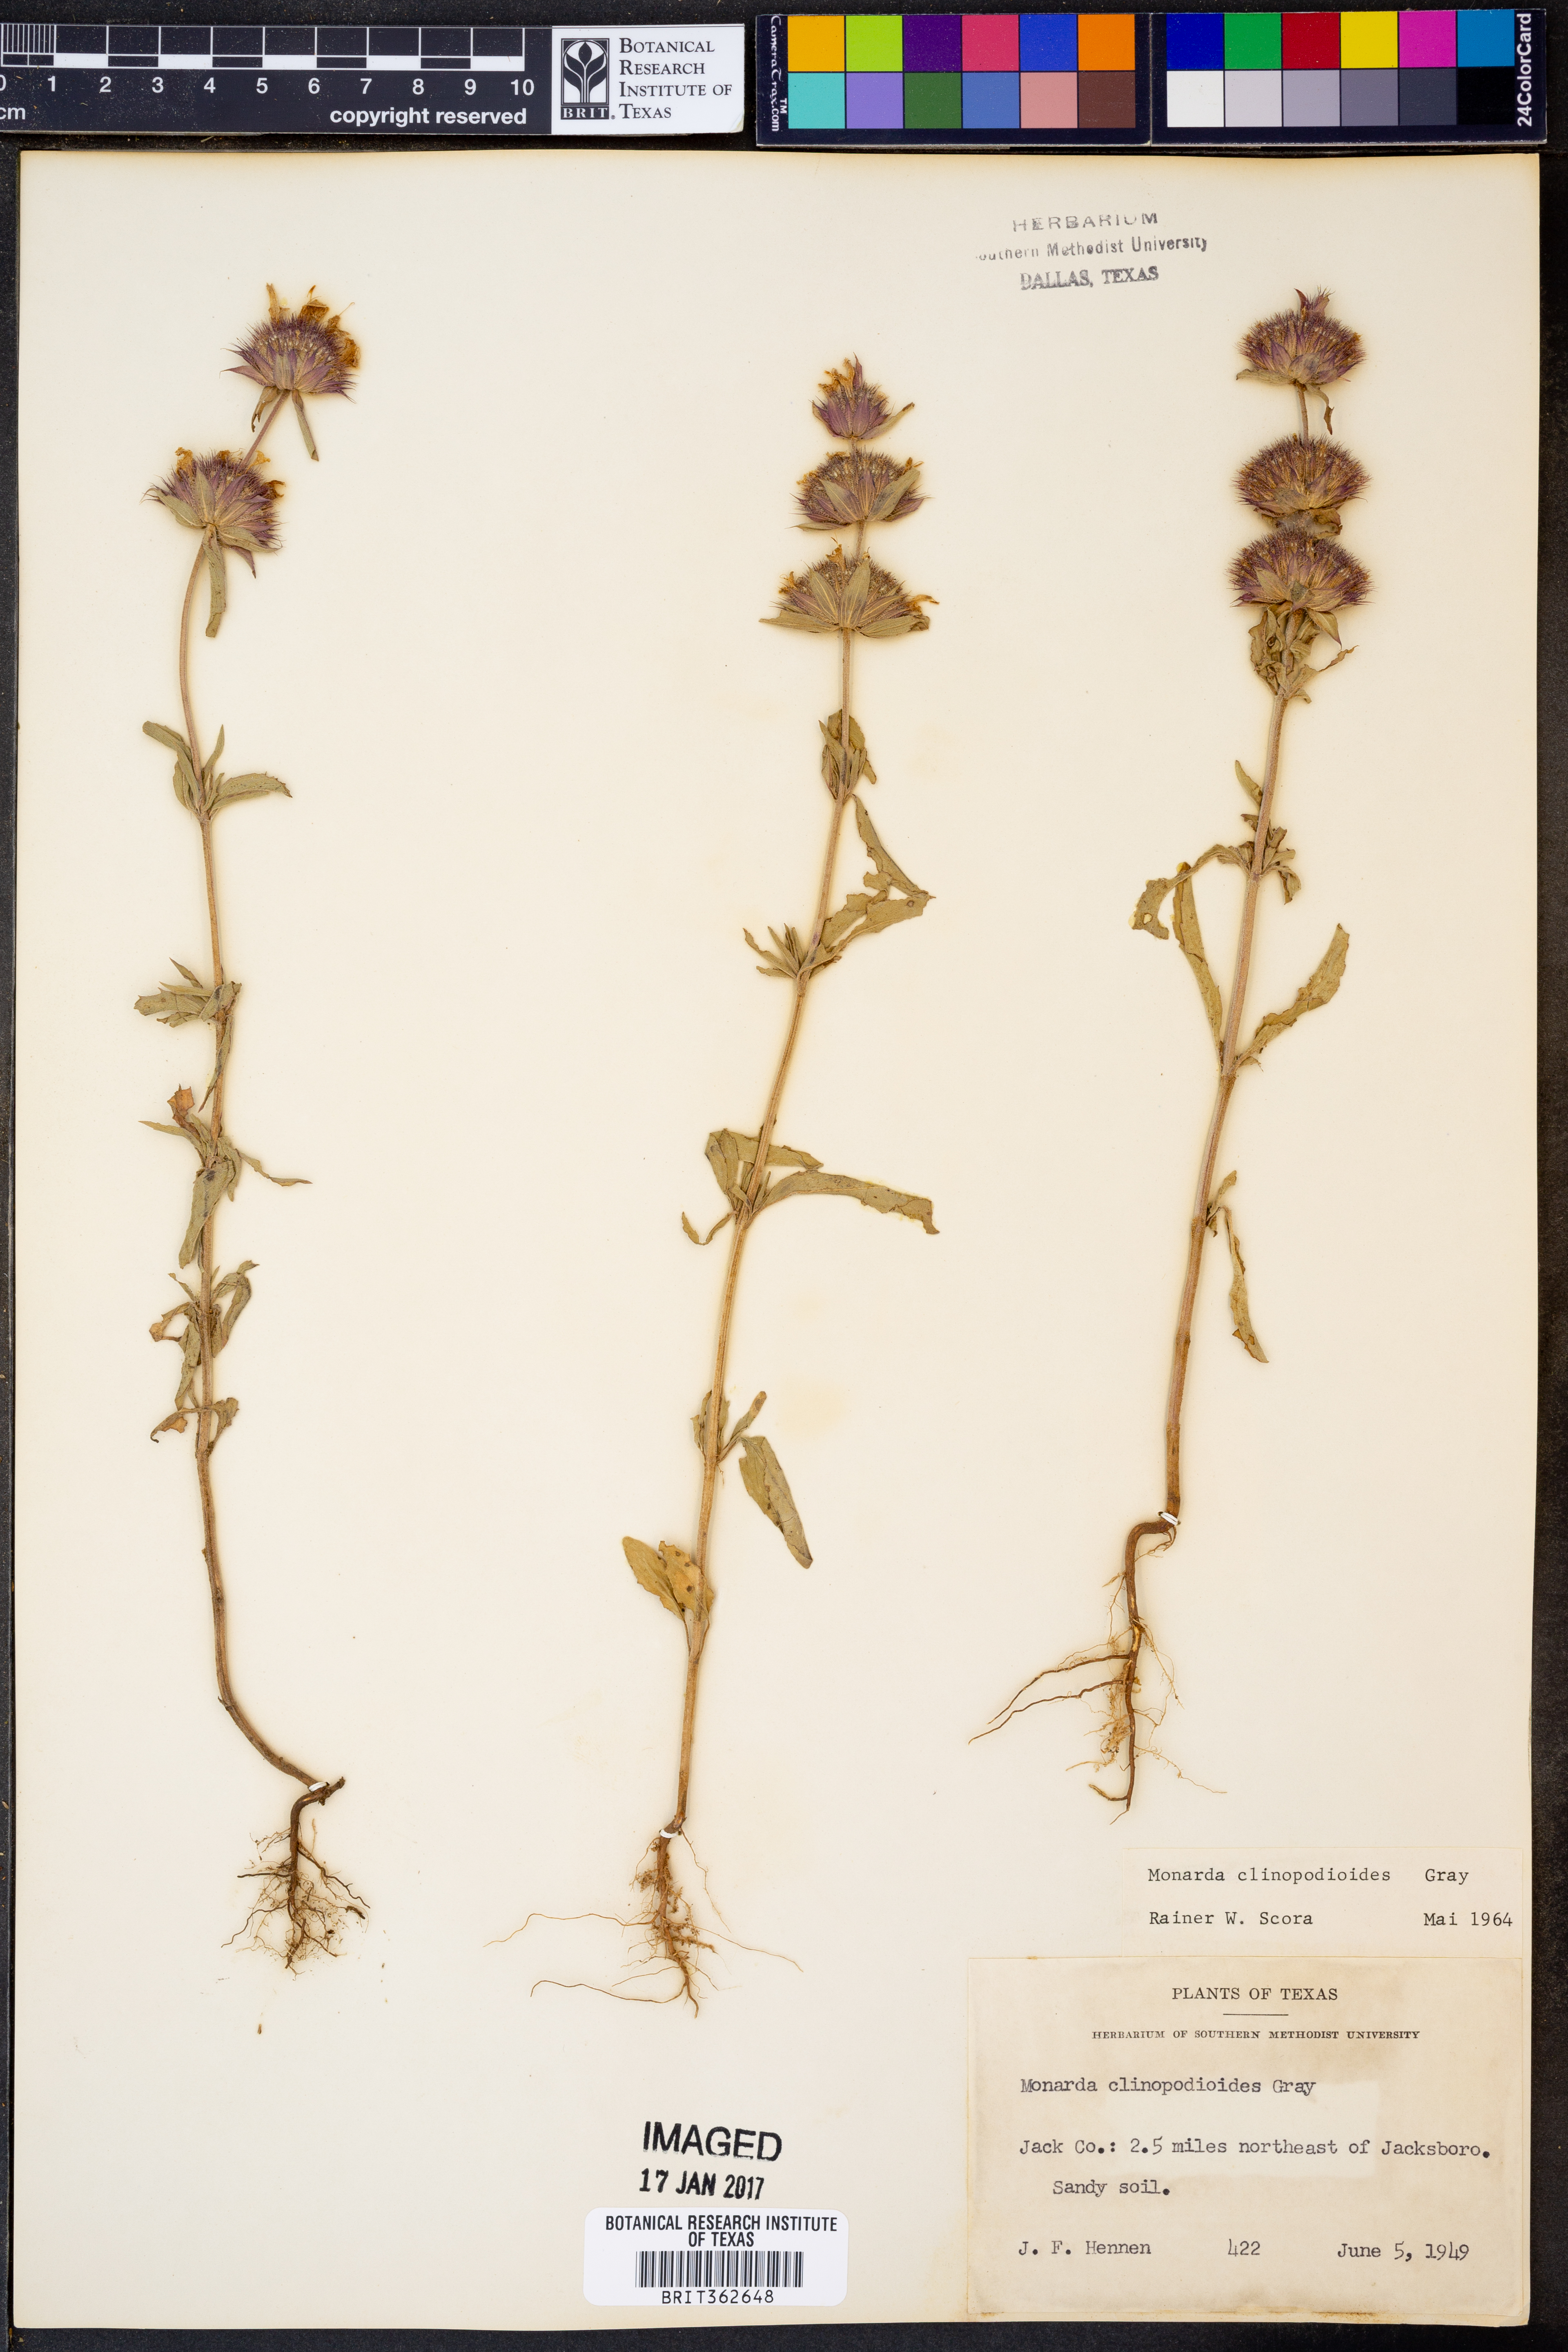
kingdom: Plantae
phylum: Tracheophyta
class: Magnoliopsida
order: Lamiales
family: Lamiaceae
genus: Monarda
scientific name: Monarda clinopodioides
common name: Basil beebalm
